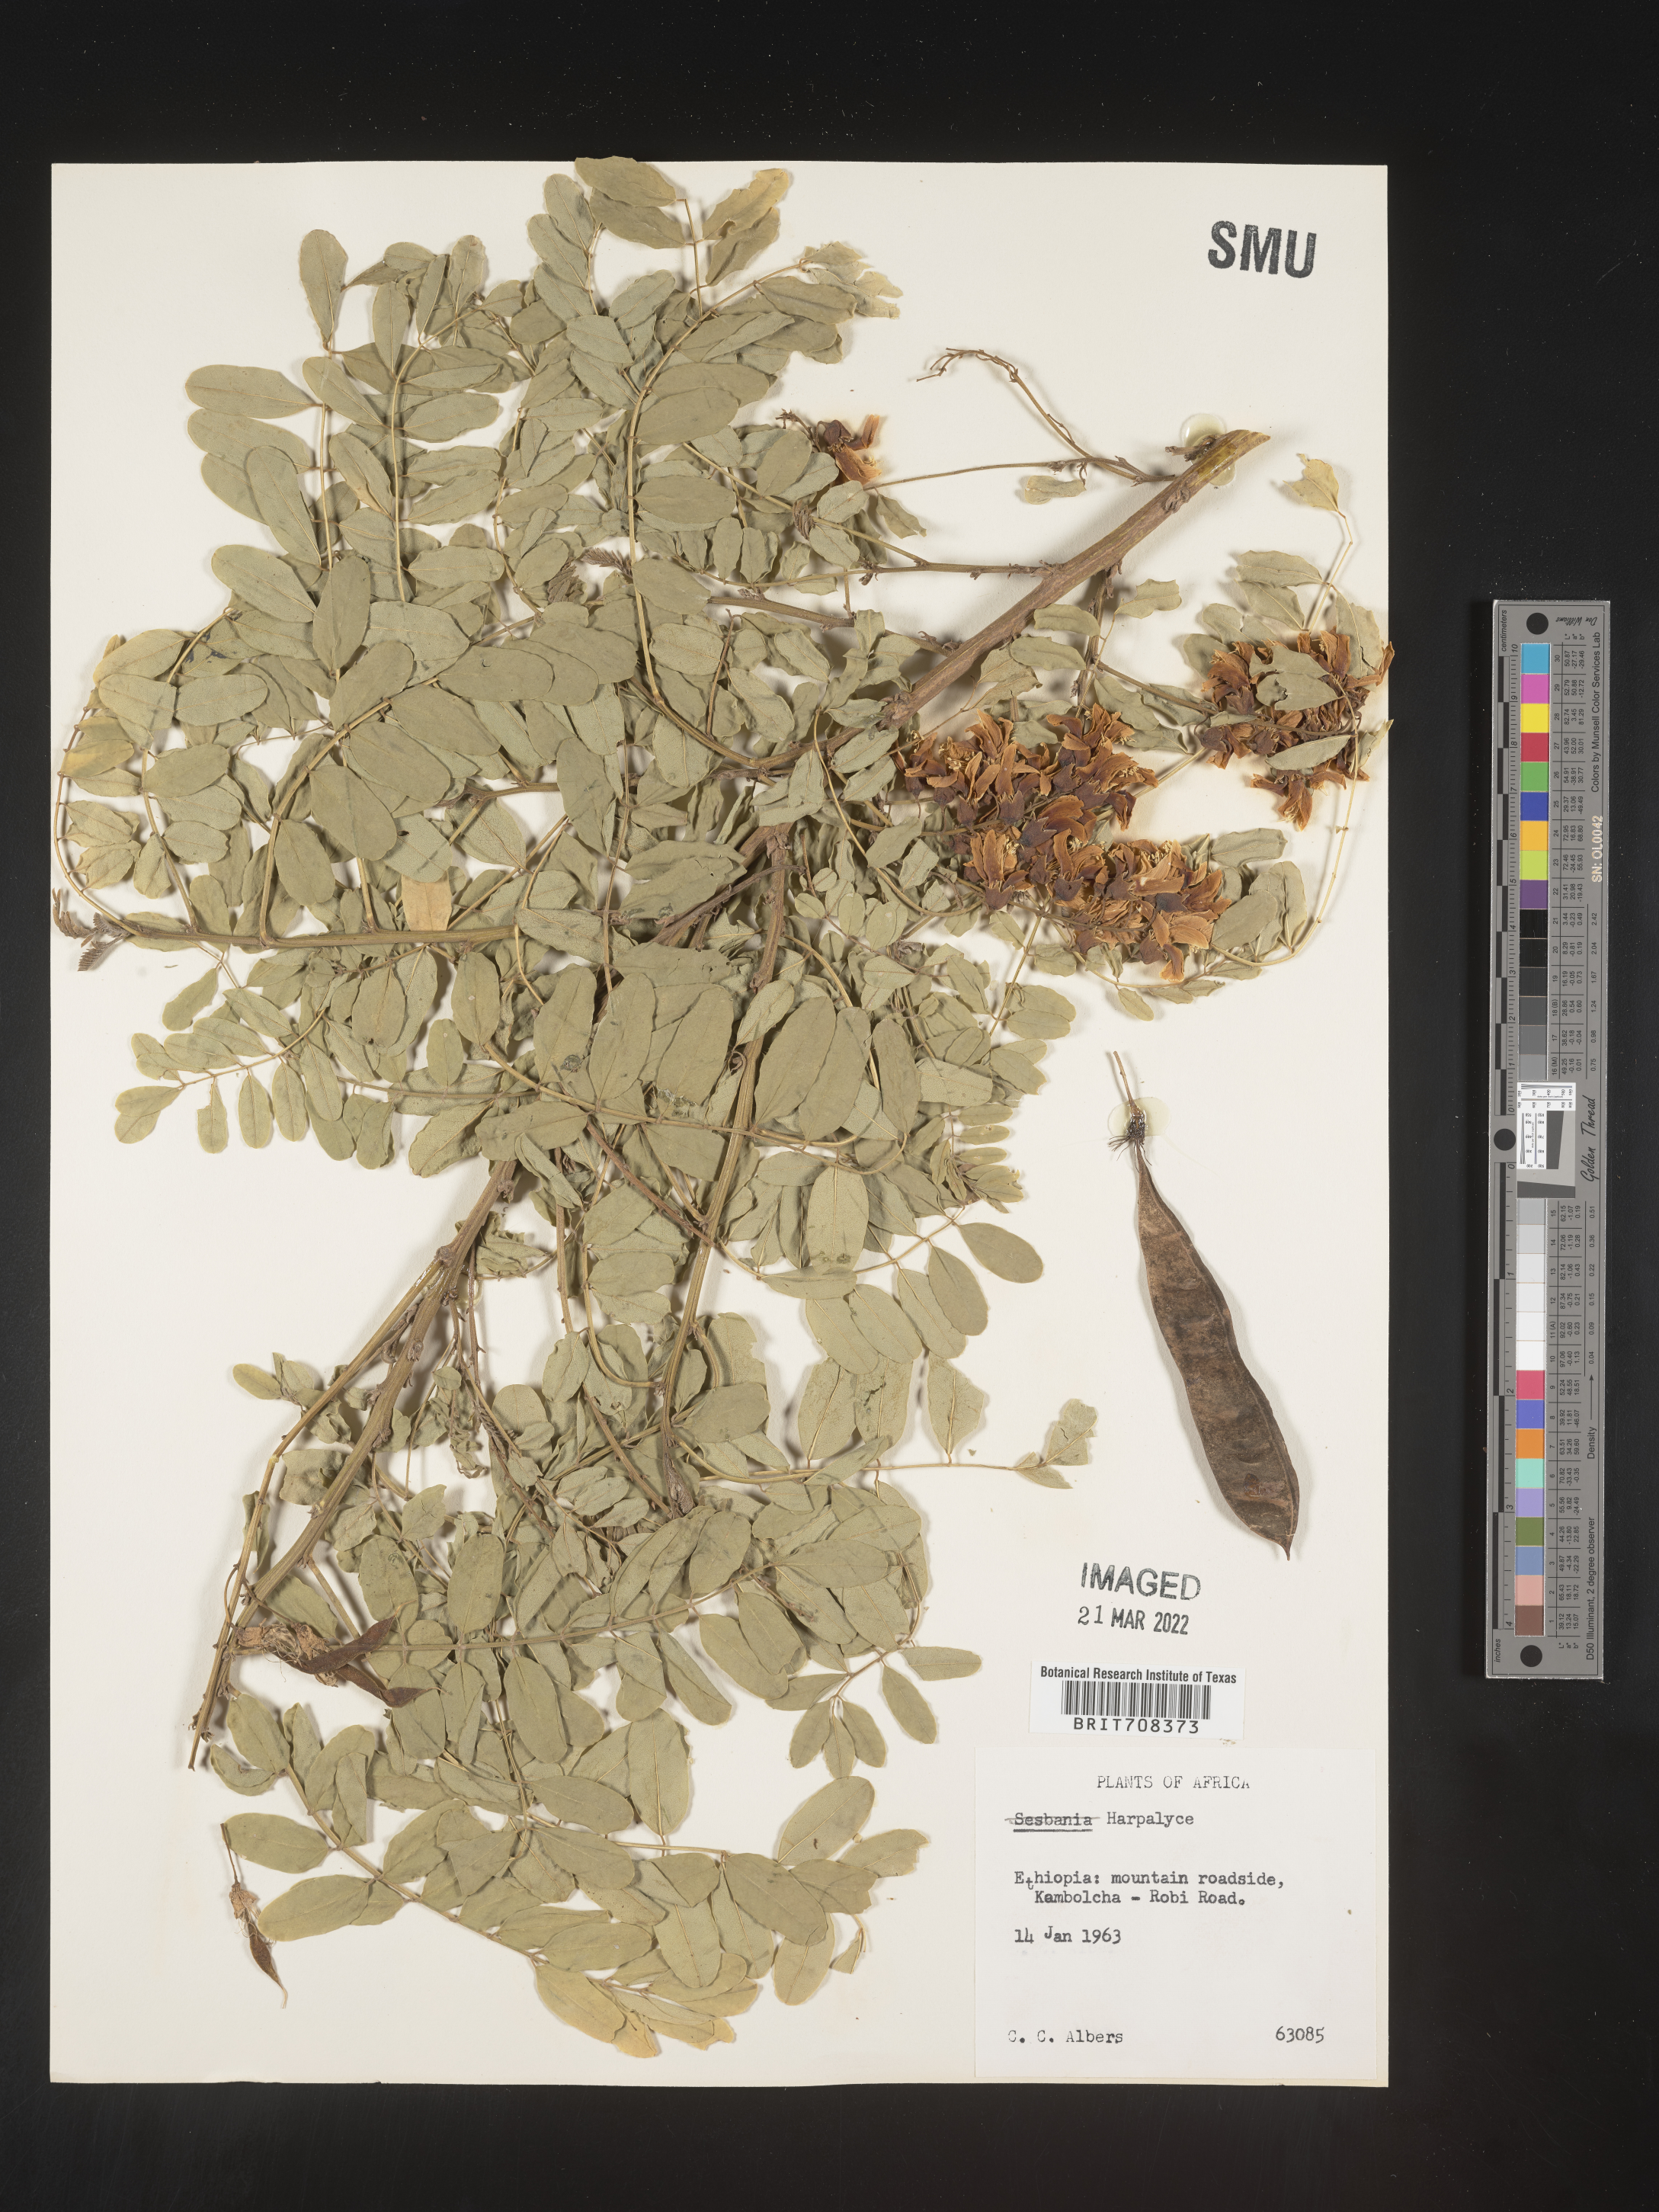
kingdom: Plantae
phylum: Tracheophyta
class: Magnoliopsida
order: Fabales
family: Fabaceae
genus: Harpalyce
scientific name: Harpalyce
